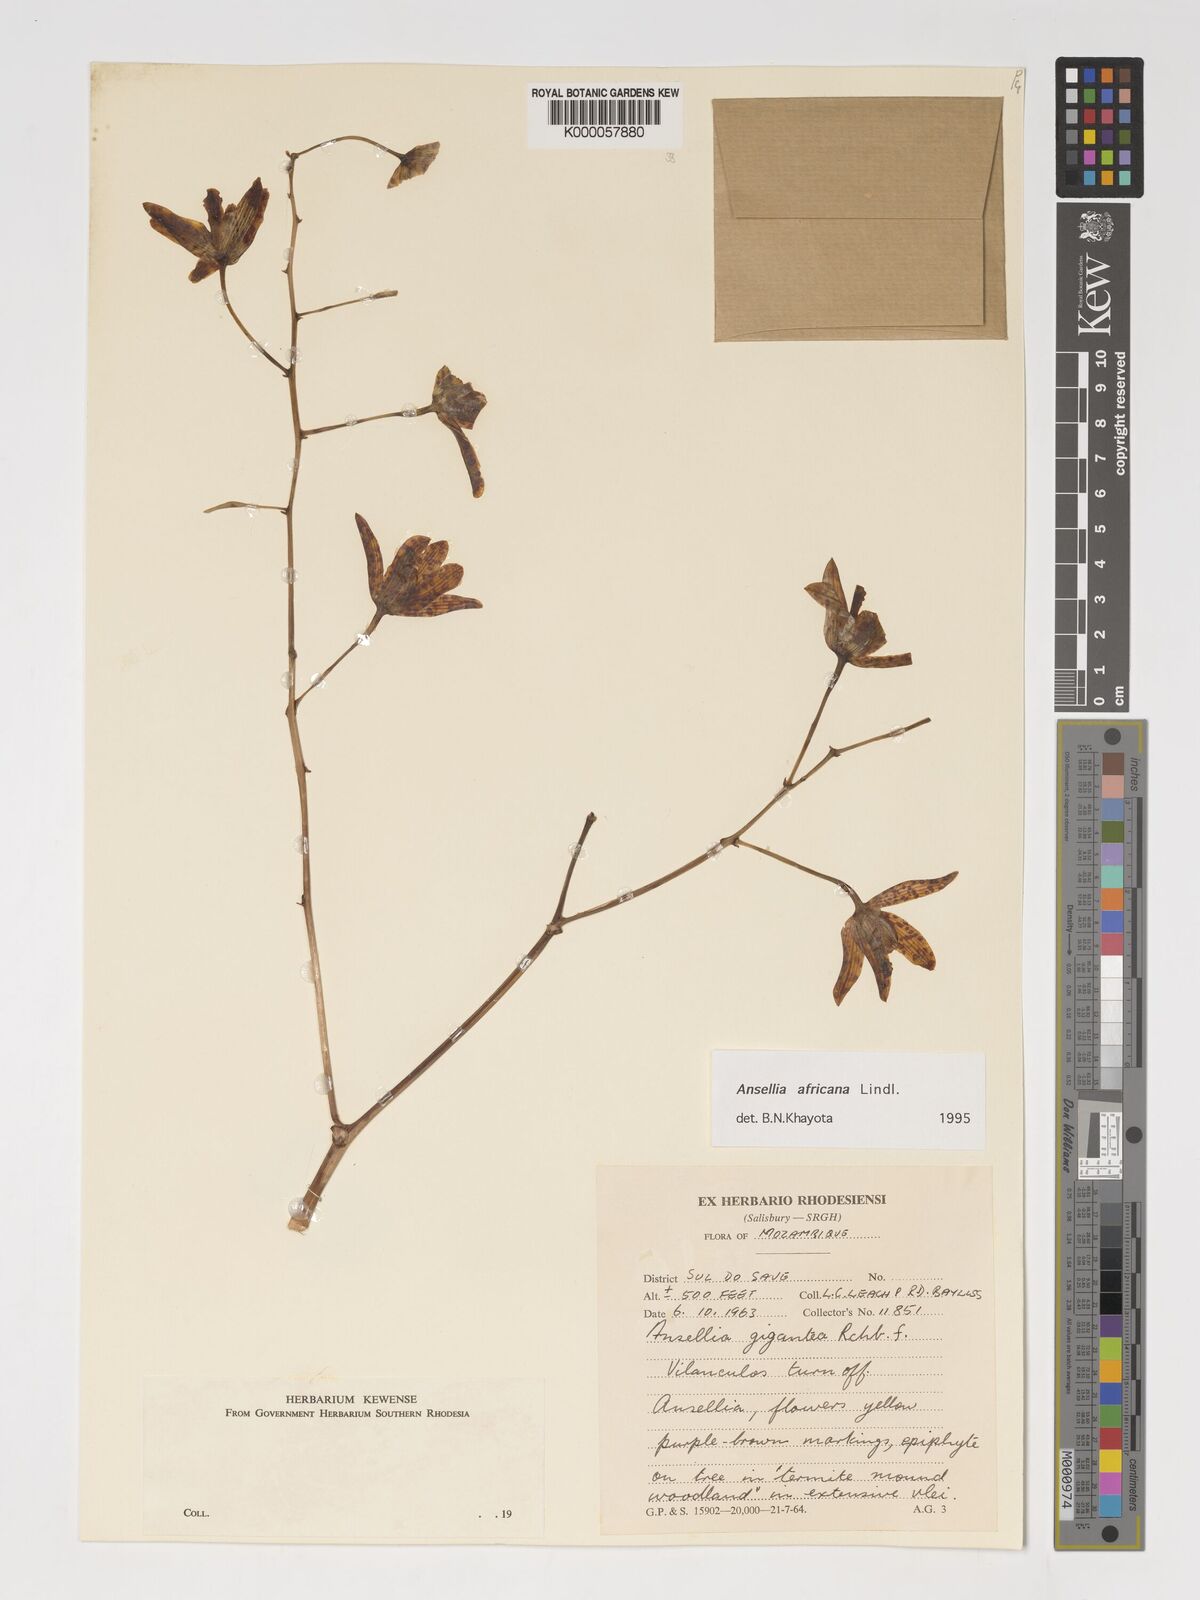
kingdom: Plantae
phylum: Tracheophyta
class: Liliopsida
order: Asparagales
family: Orchidaceae
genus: Ansellia
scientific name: Ansellia africana
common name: African ansellia
